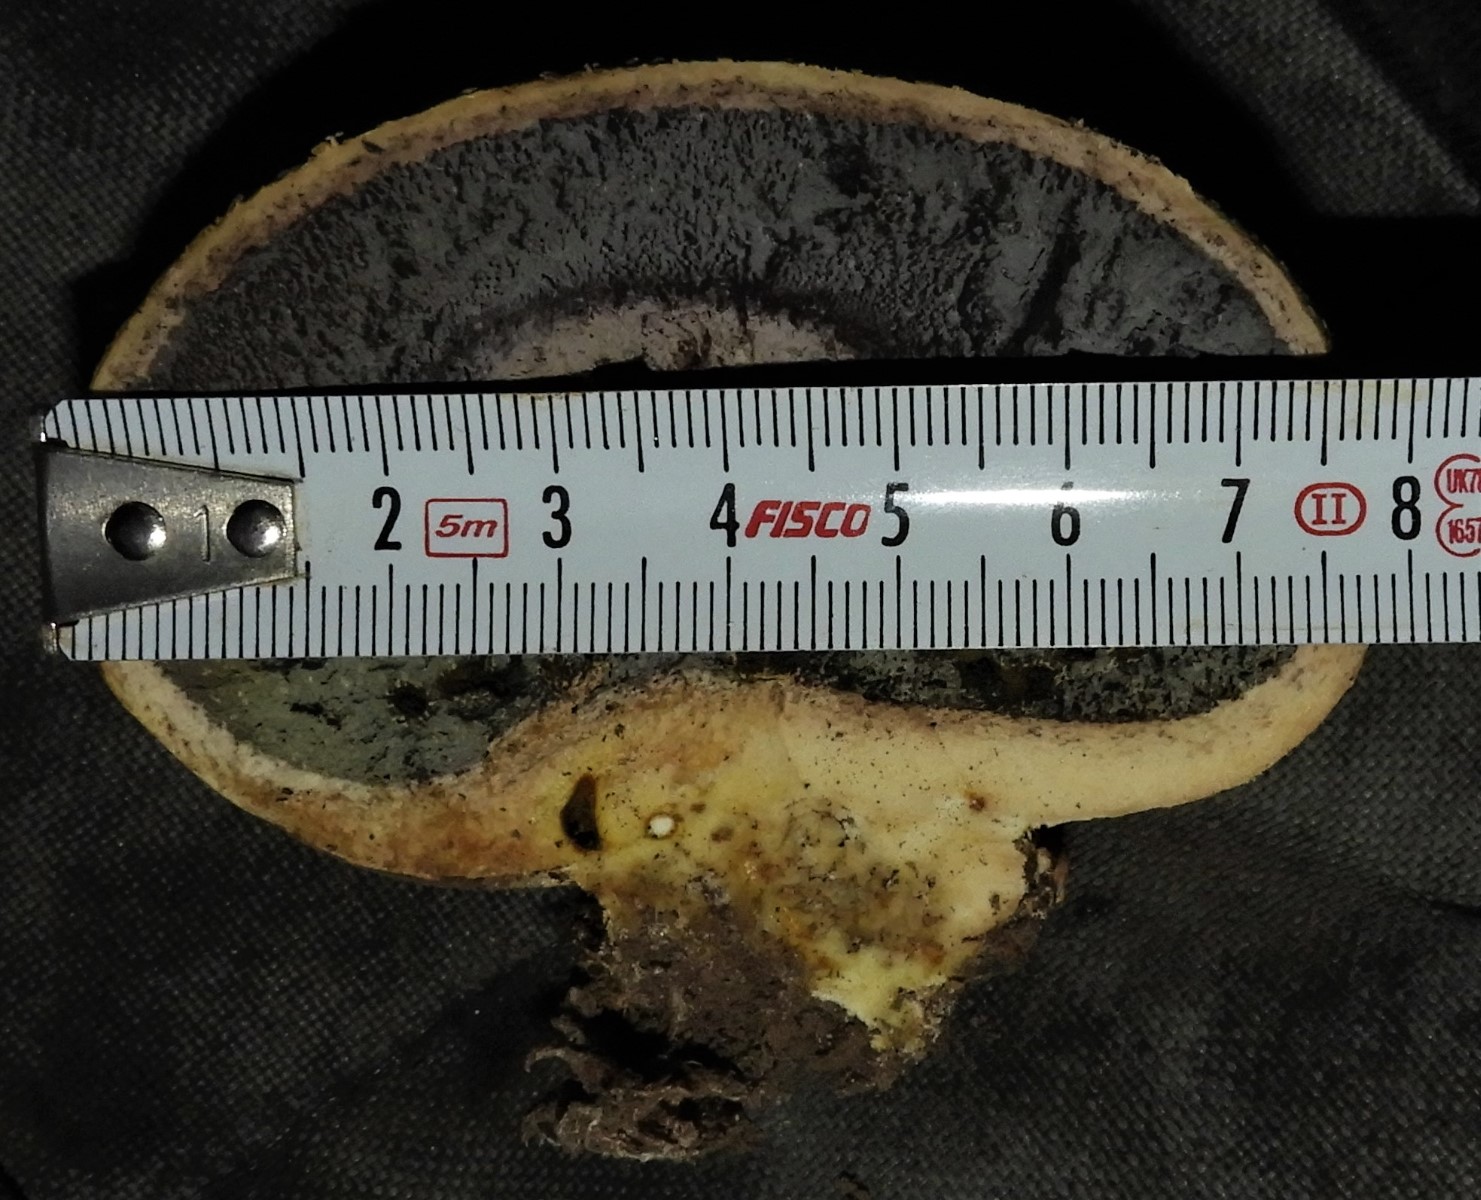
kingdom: Fungi
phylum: Basidiomycota
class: Agaricomycetes
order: Boletales
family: Sclerodermataceae
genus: Scleroderma
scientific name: Scleroderma citrinum
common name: almindelig bruskbold
